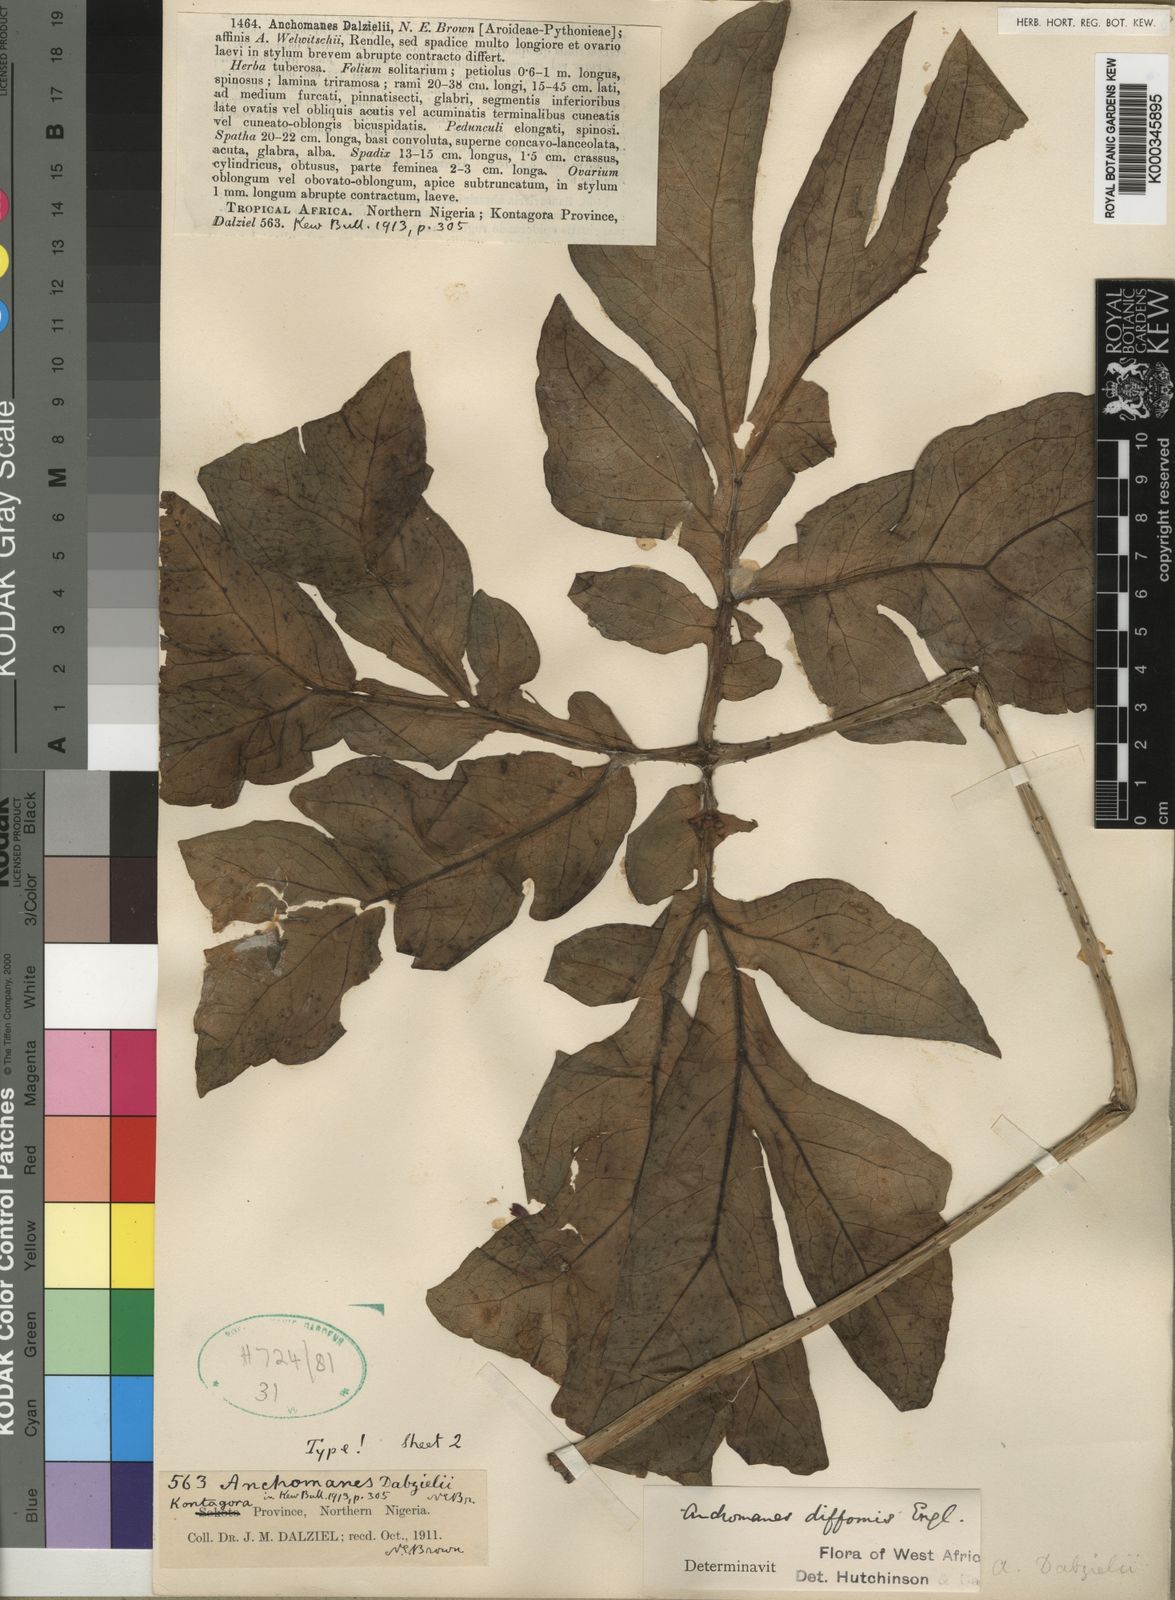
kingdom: Plantae
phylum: Tracheophyta
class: Liliopsida
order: Alismatales
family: Araceae
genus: Anchomanes
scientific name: Anchomanes dalzielii
